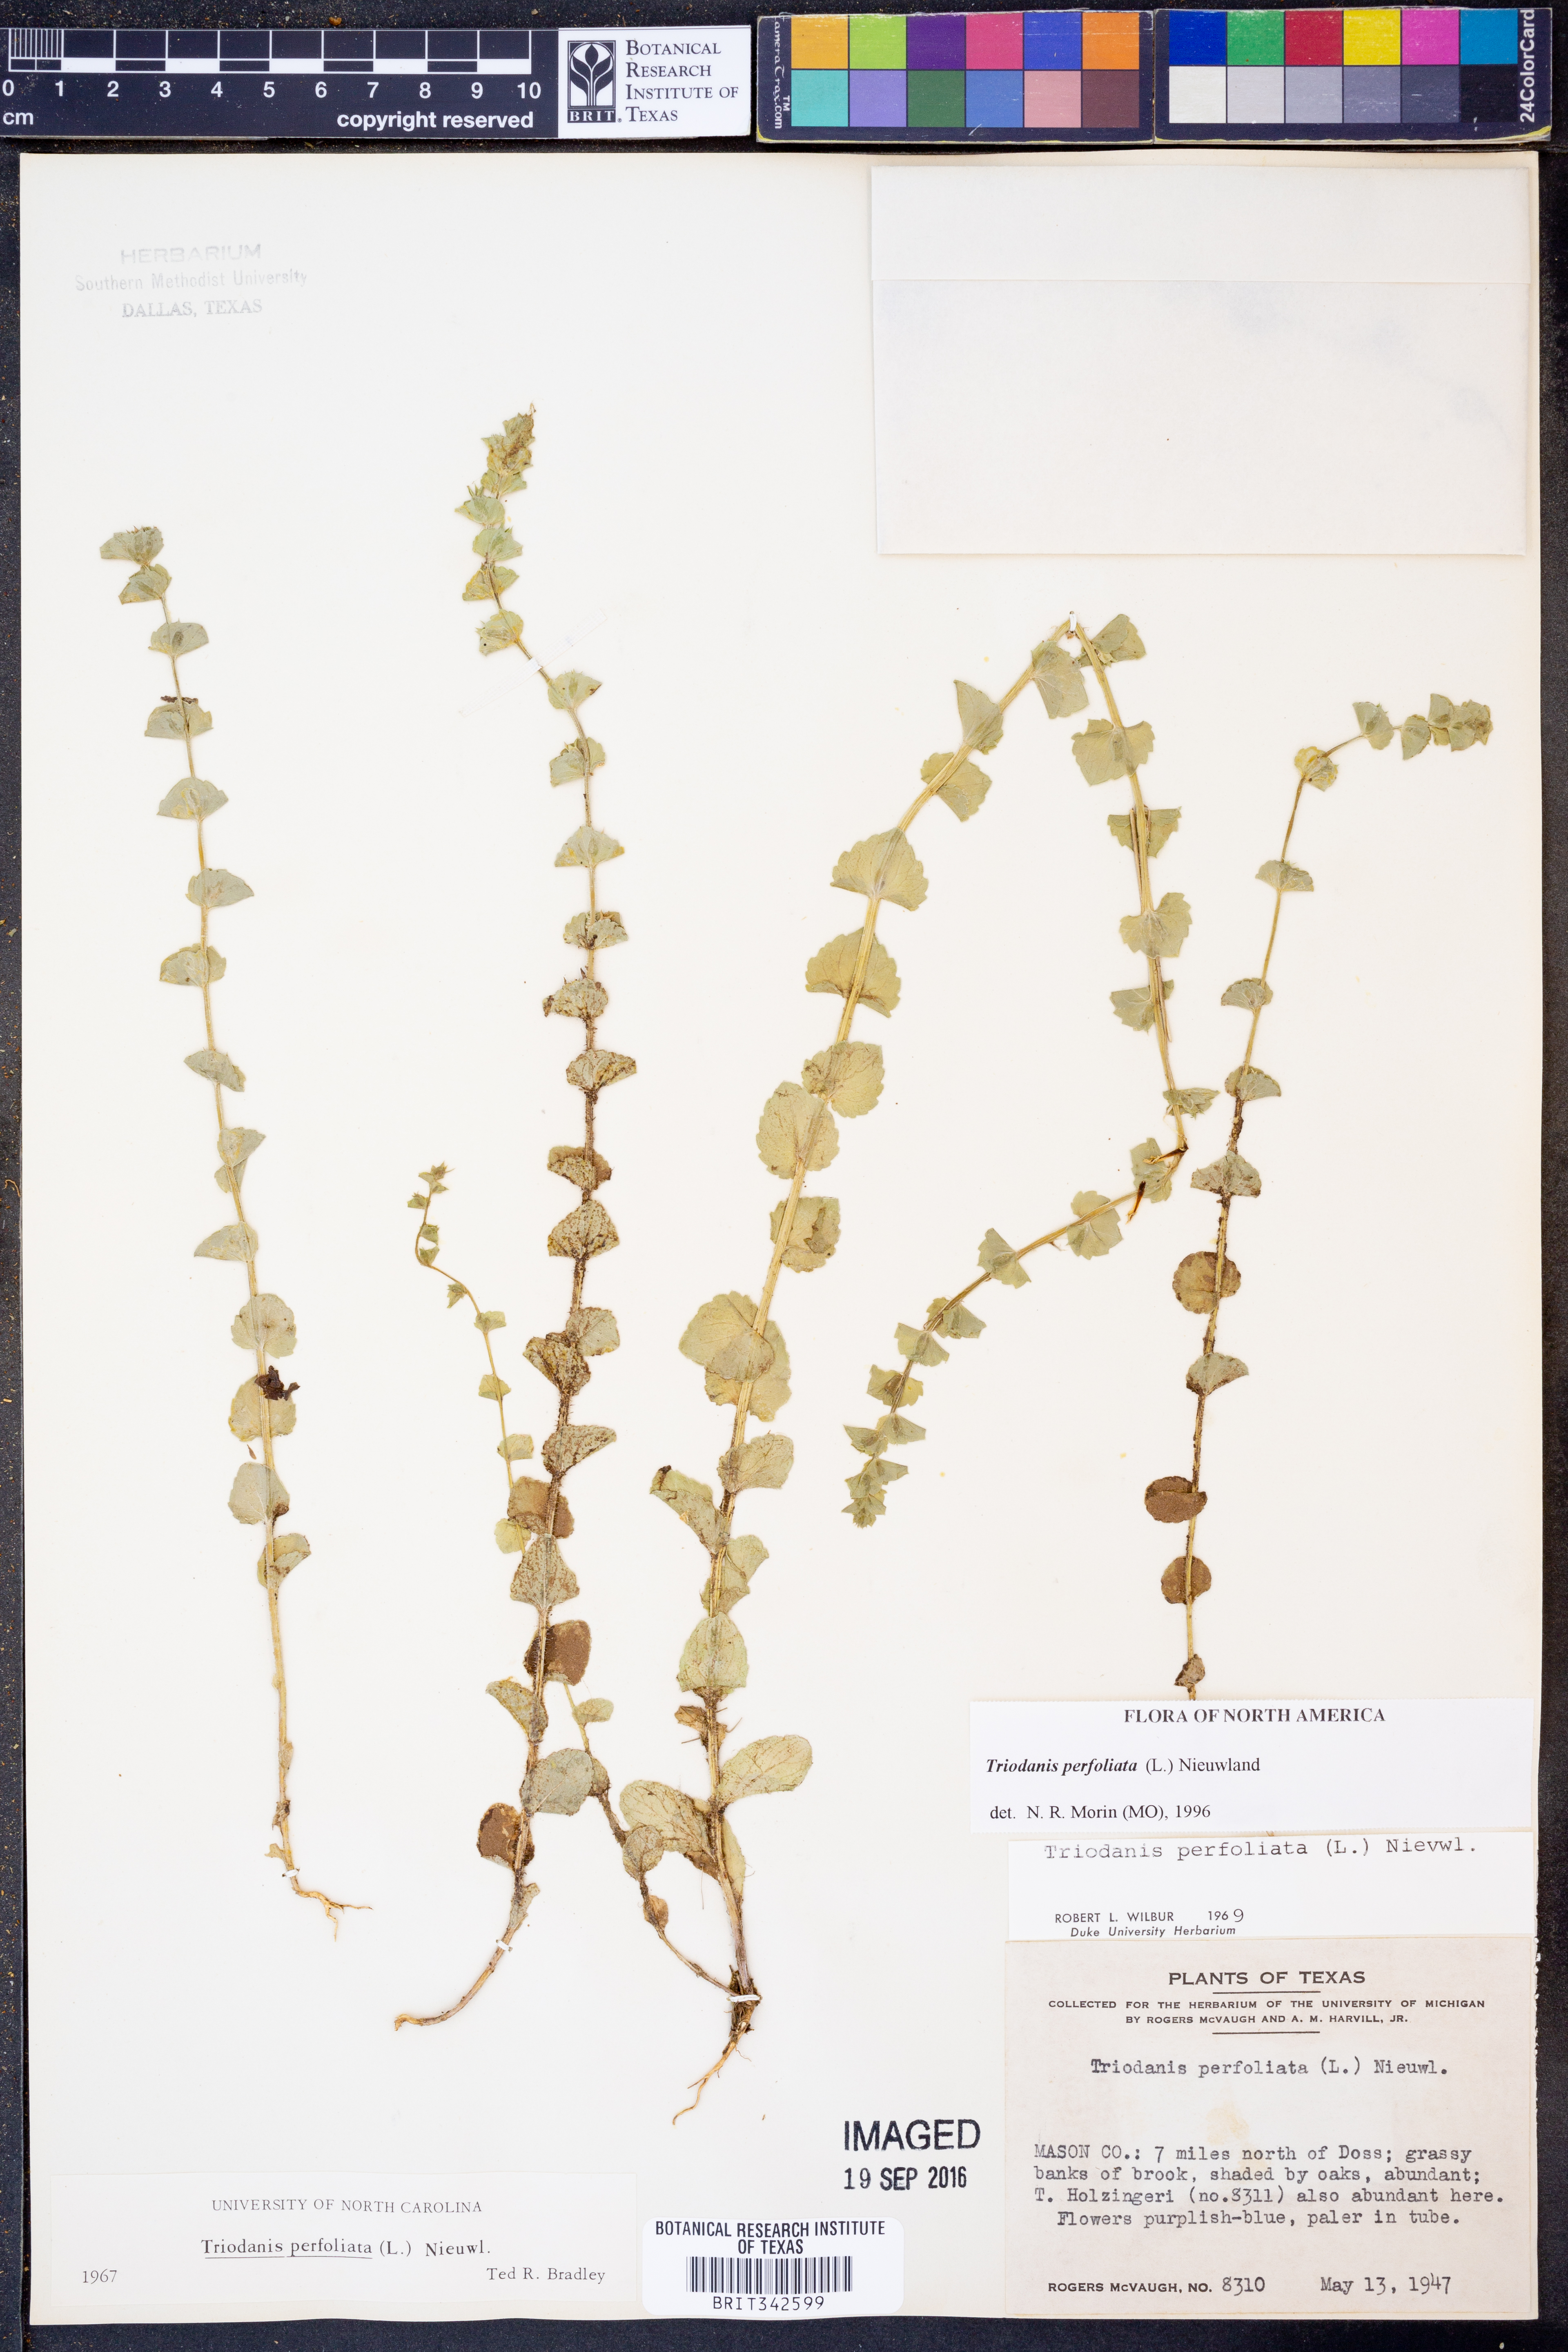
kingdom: Plantae
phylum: Tracheophyta
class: Magnoliopsida
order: Asterales
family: Campanulaceae
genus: Triodanis
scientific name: Triodanis perfoliata
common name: Clasping venus' looking-glass
